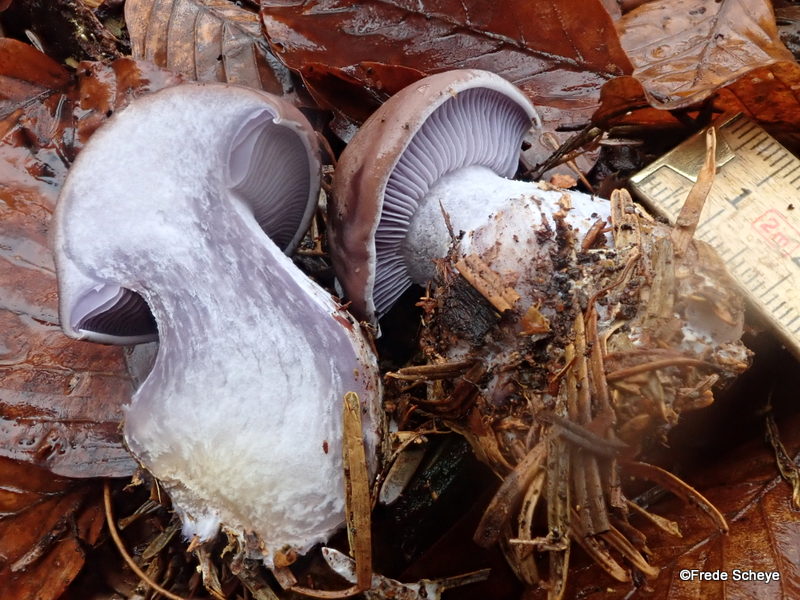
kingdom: Fungi
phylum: Basidiomycota
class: Agaricomycetes
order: Agaricales
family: Tricholomataceae
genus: Lepista
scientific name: Lepista nuda
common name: violet hekseringshat
